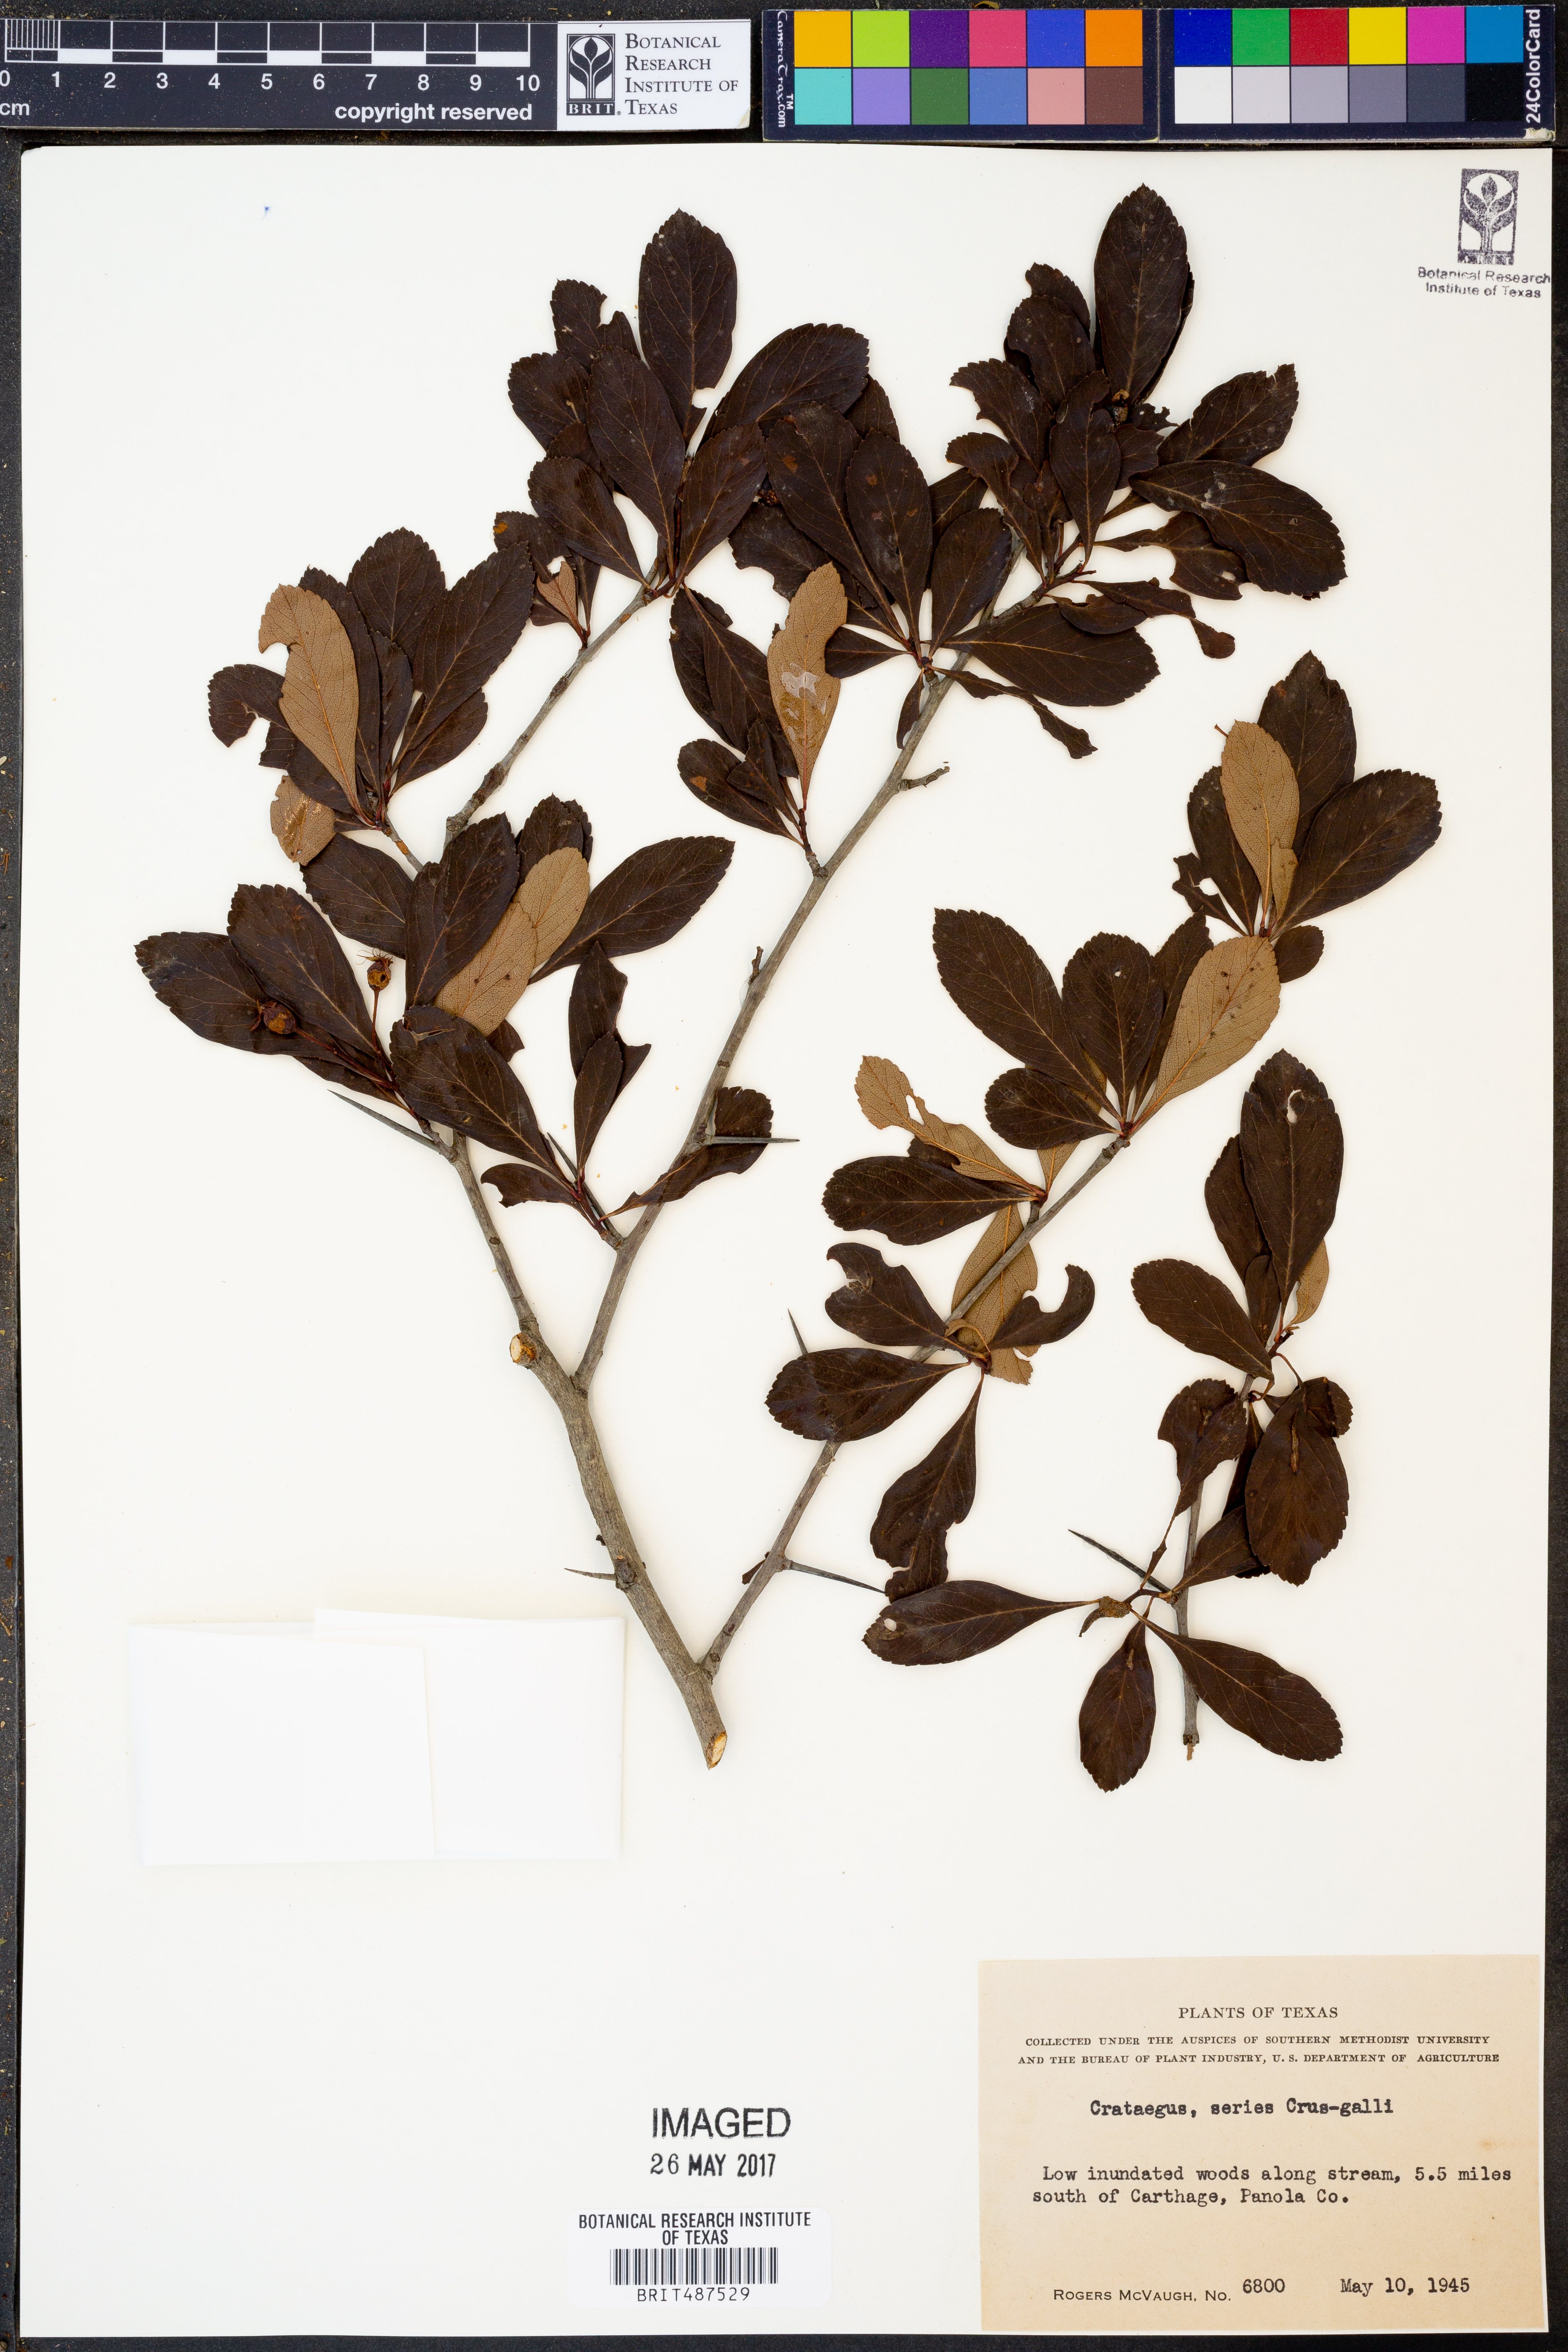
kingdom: Plantae
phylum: Tracheophyta
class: Magnoliopsida
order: Rosales
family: Rosaceae
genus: Crataegus
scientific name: Crataegus crus-galli
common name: Cockspurthorn
